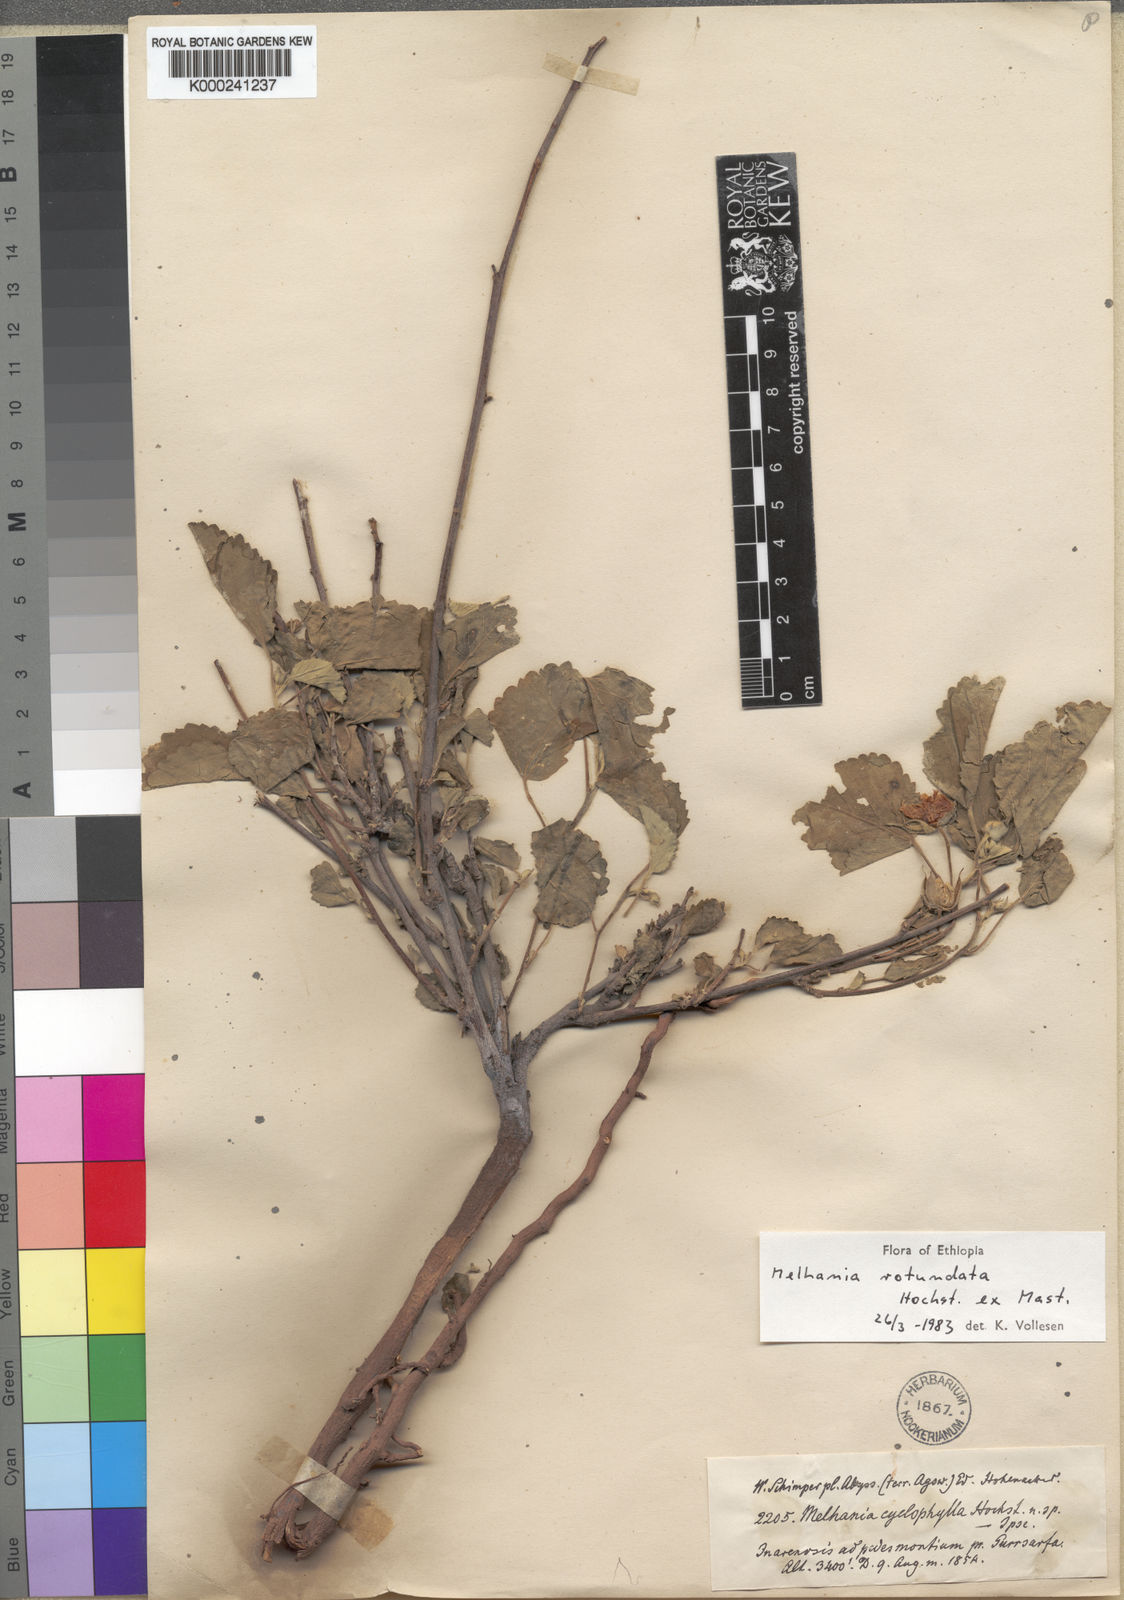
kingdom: Plantae
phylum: Tracheophyta
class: Magnoliopsida
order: Malvales
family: Malvaceae
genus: Melhania
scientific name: Melhania rotundata
